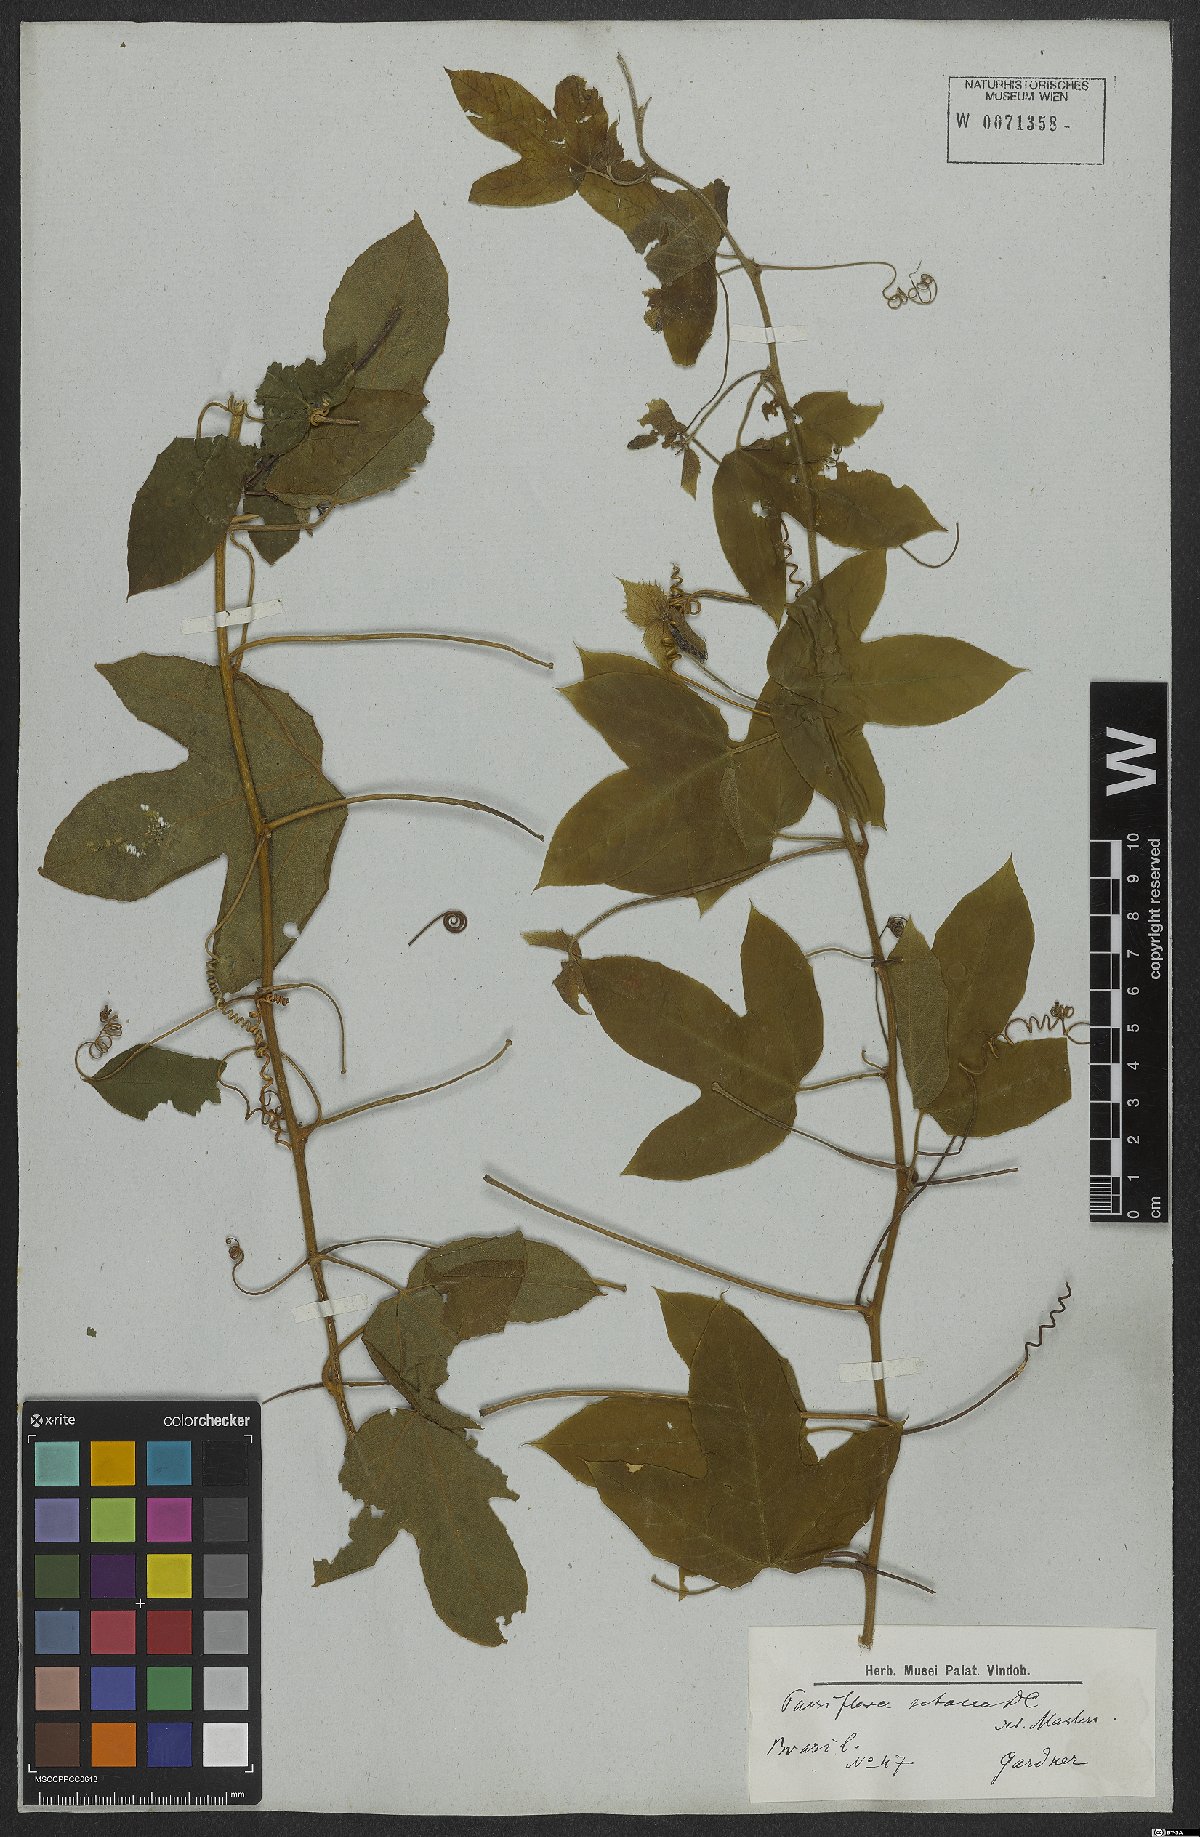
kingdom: Plantae
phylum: Tracheophyta
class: Magnoliopsida
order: Malpighiales
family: Passifloraceae
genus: Passiflora
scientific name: Passiflora setacea
